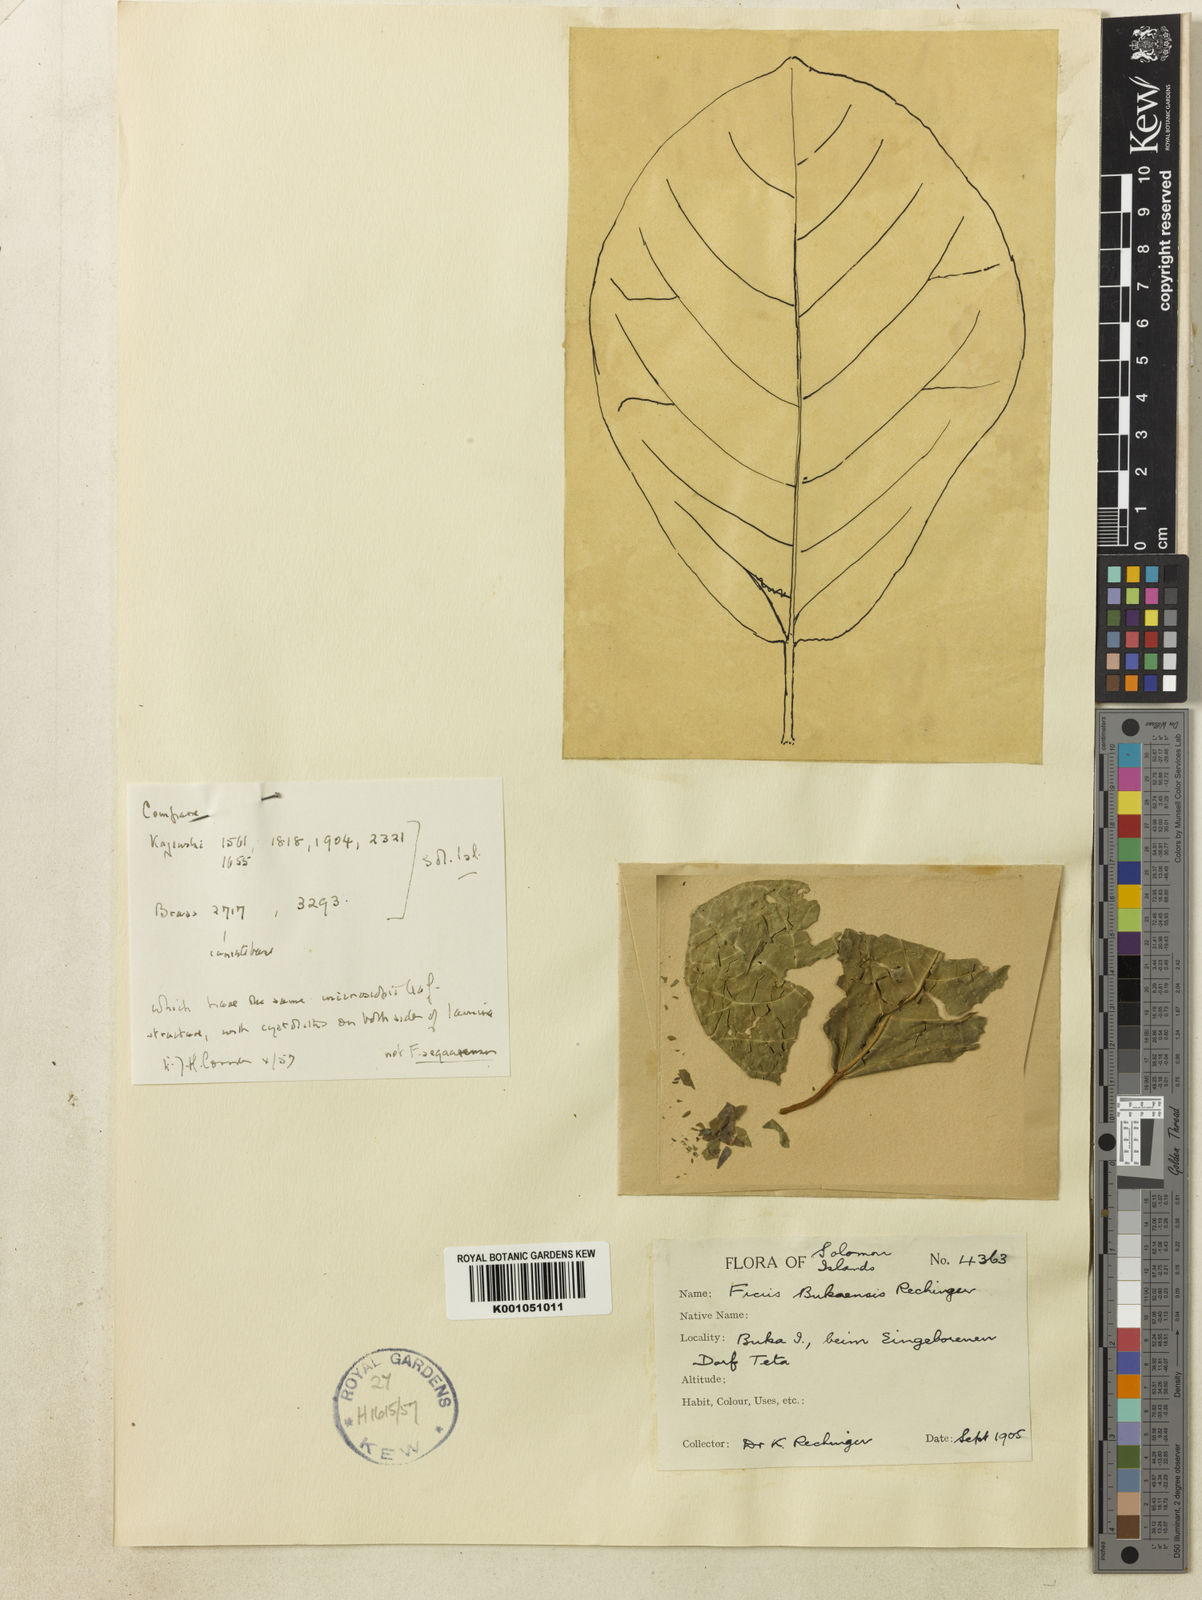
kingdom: Plantae
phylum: Tracheophyta
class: Magnoliopsida
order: Rosales
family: Moraceae
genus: Ficus
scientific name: Ficus indigofera
